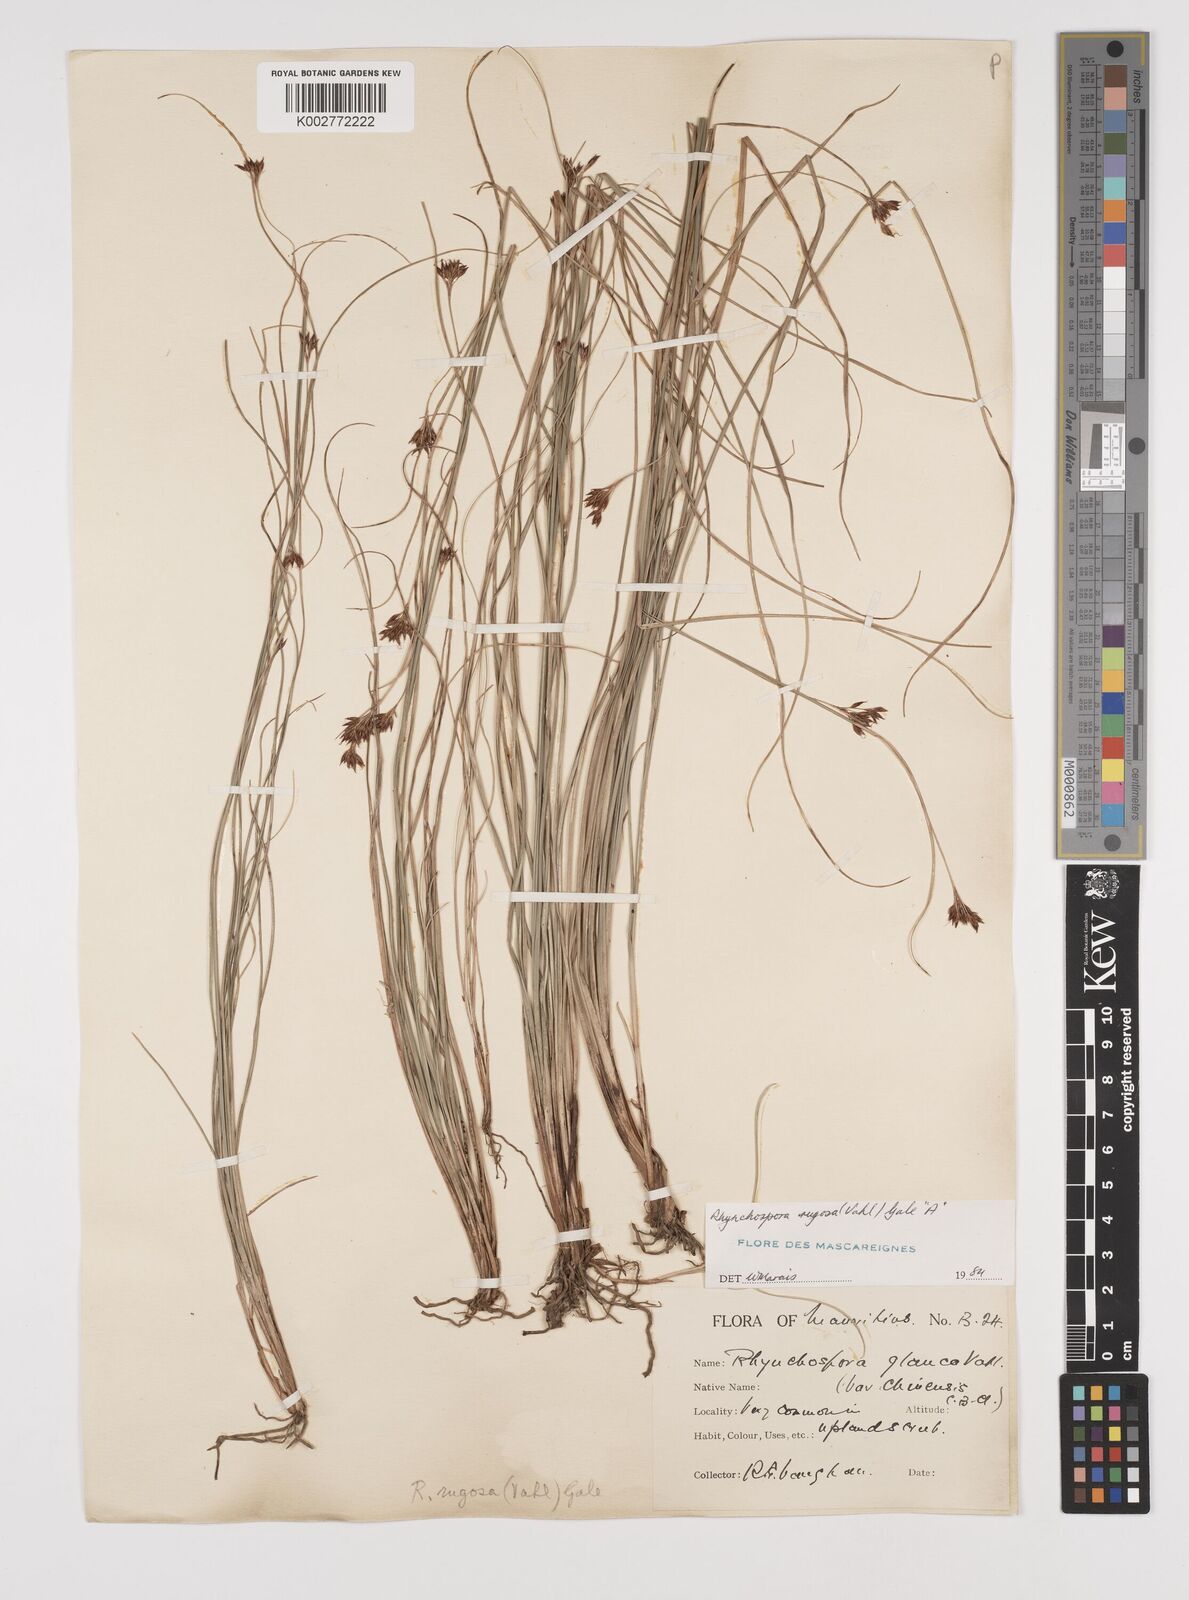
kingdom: Plantae
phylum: Tracheophyta
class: Liliopsida
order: Poales
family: Cyperaceae
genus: Rhynchospora
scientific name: Rhynchospora rugosa
